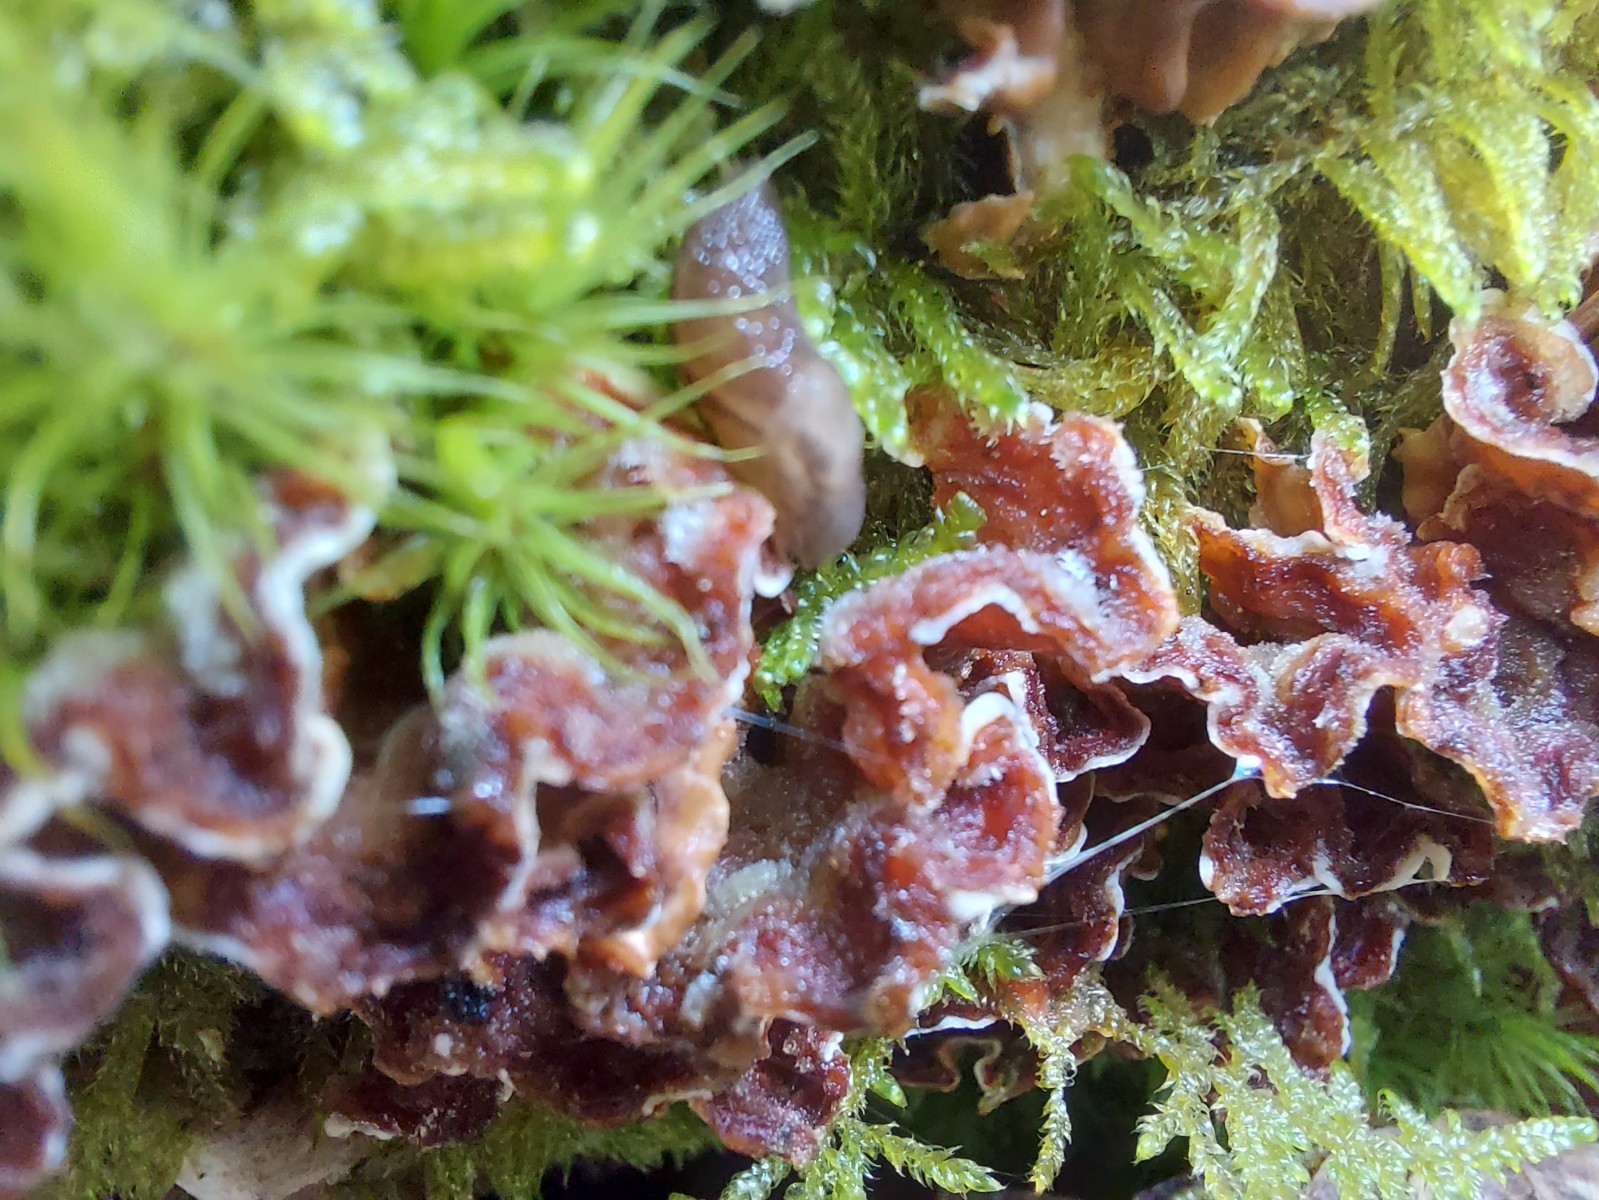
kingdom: Fungi
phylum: Basidiomycota
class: Agaricomycetes
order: Russulales
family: Stereaceae
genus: Stereum
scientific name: Stereum hirsutum
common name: håret lædersvamp
